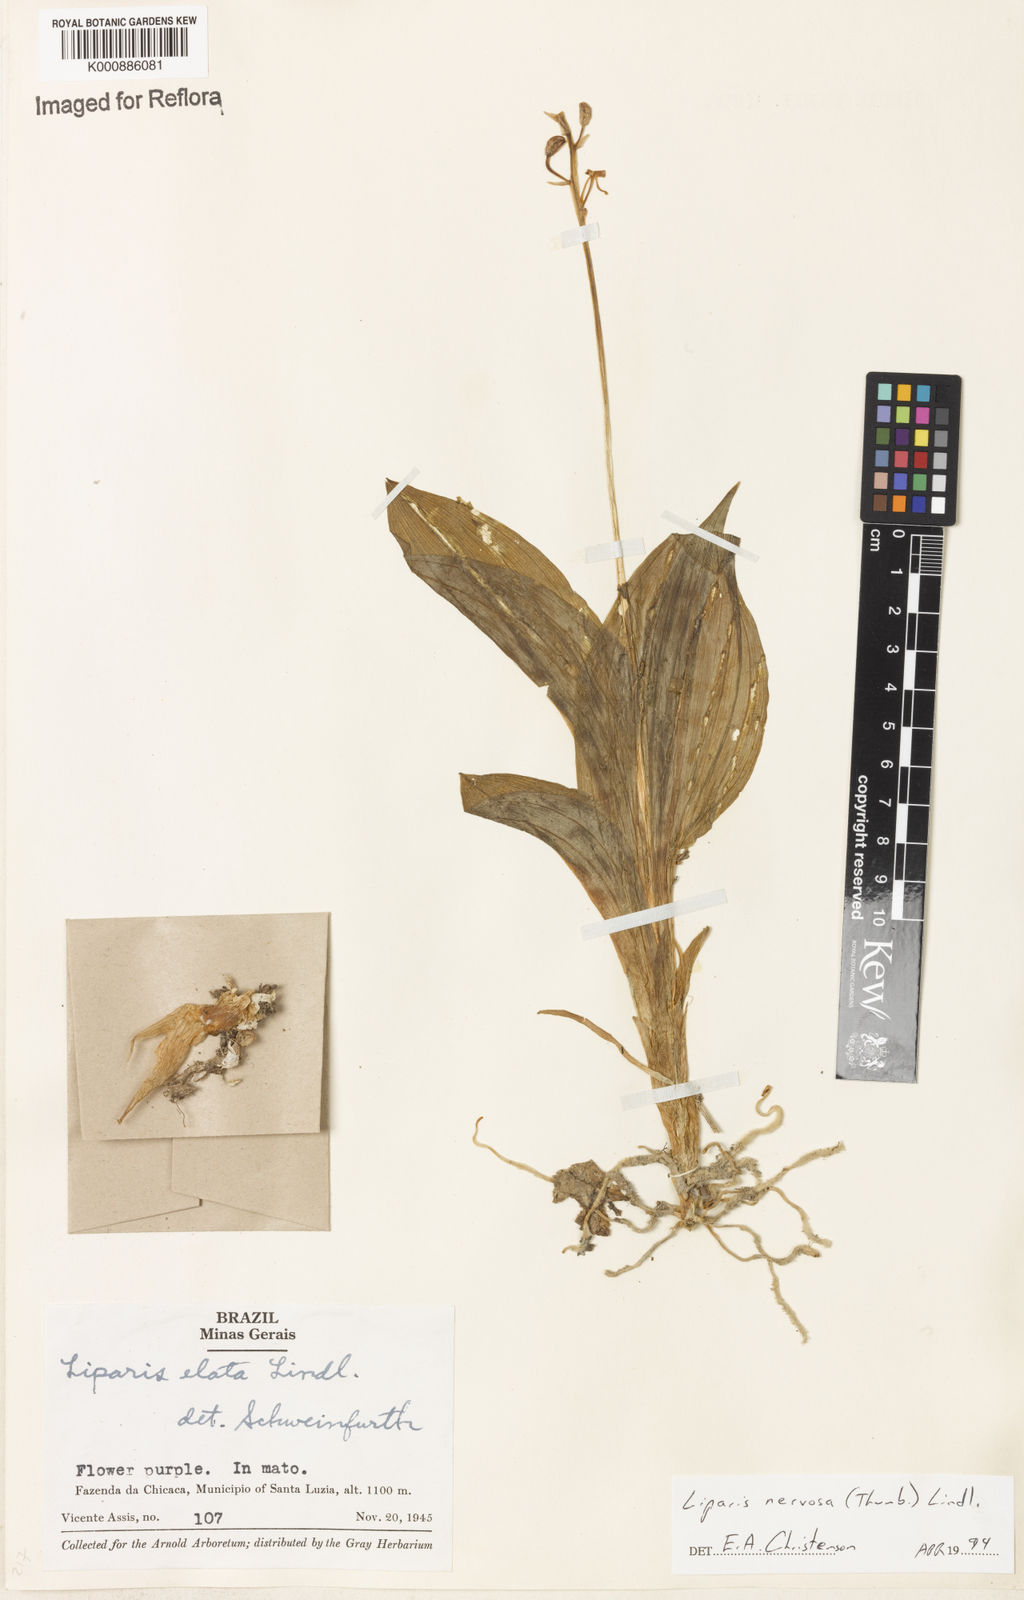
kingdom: Plantae
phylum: Tracheophyta
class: Liliopsida
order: Asparagales
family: Orchidaceae
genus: Liparis
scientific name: Liparis nervosa
